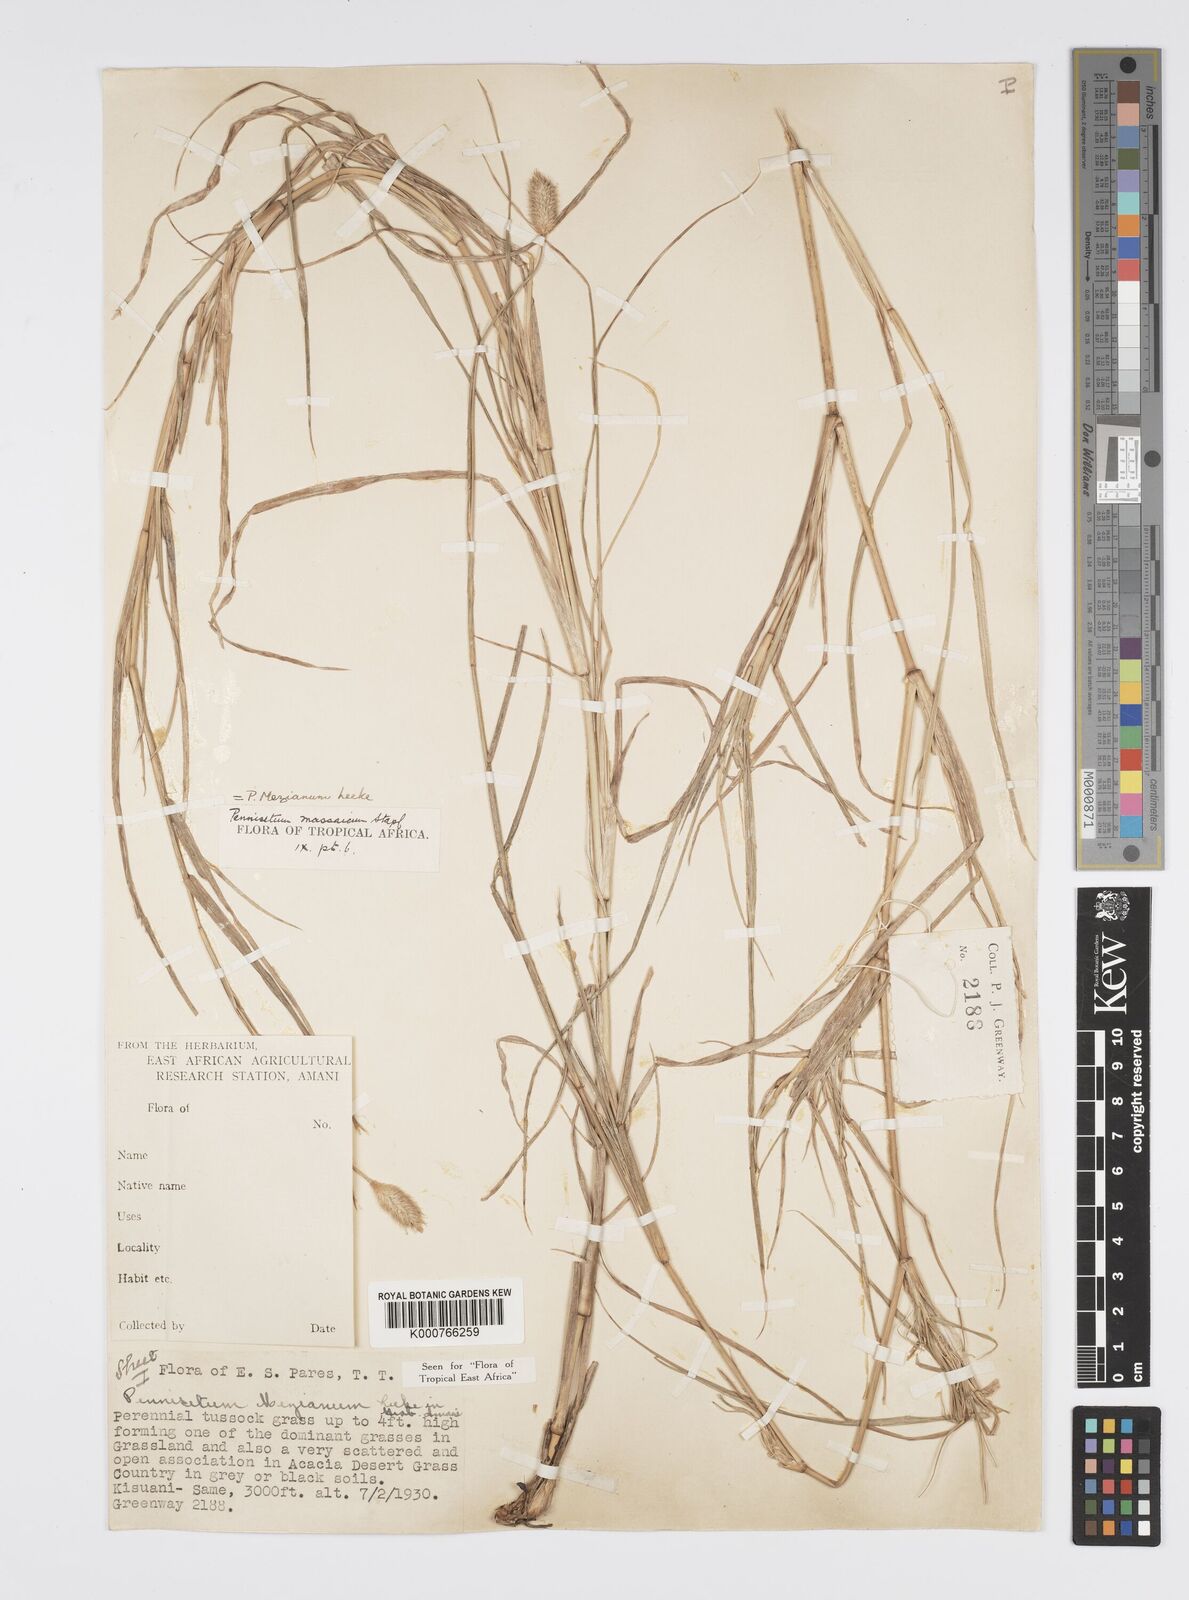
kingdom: Plantae
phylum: Tracheophyta
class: Liliopsida
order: Poales
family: Poaceae
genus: Cenchrus
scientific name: Cenchrus mezianus
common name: Bamboo grass
